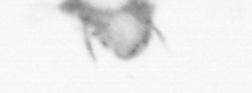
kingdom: Animalia
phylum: Annelida
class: Polychaeta
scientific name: Polychaeta
